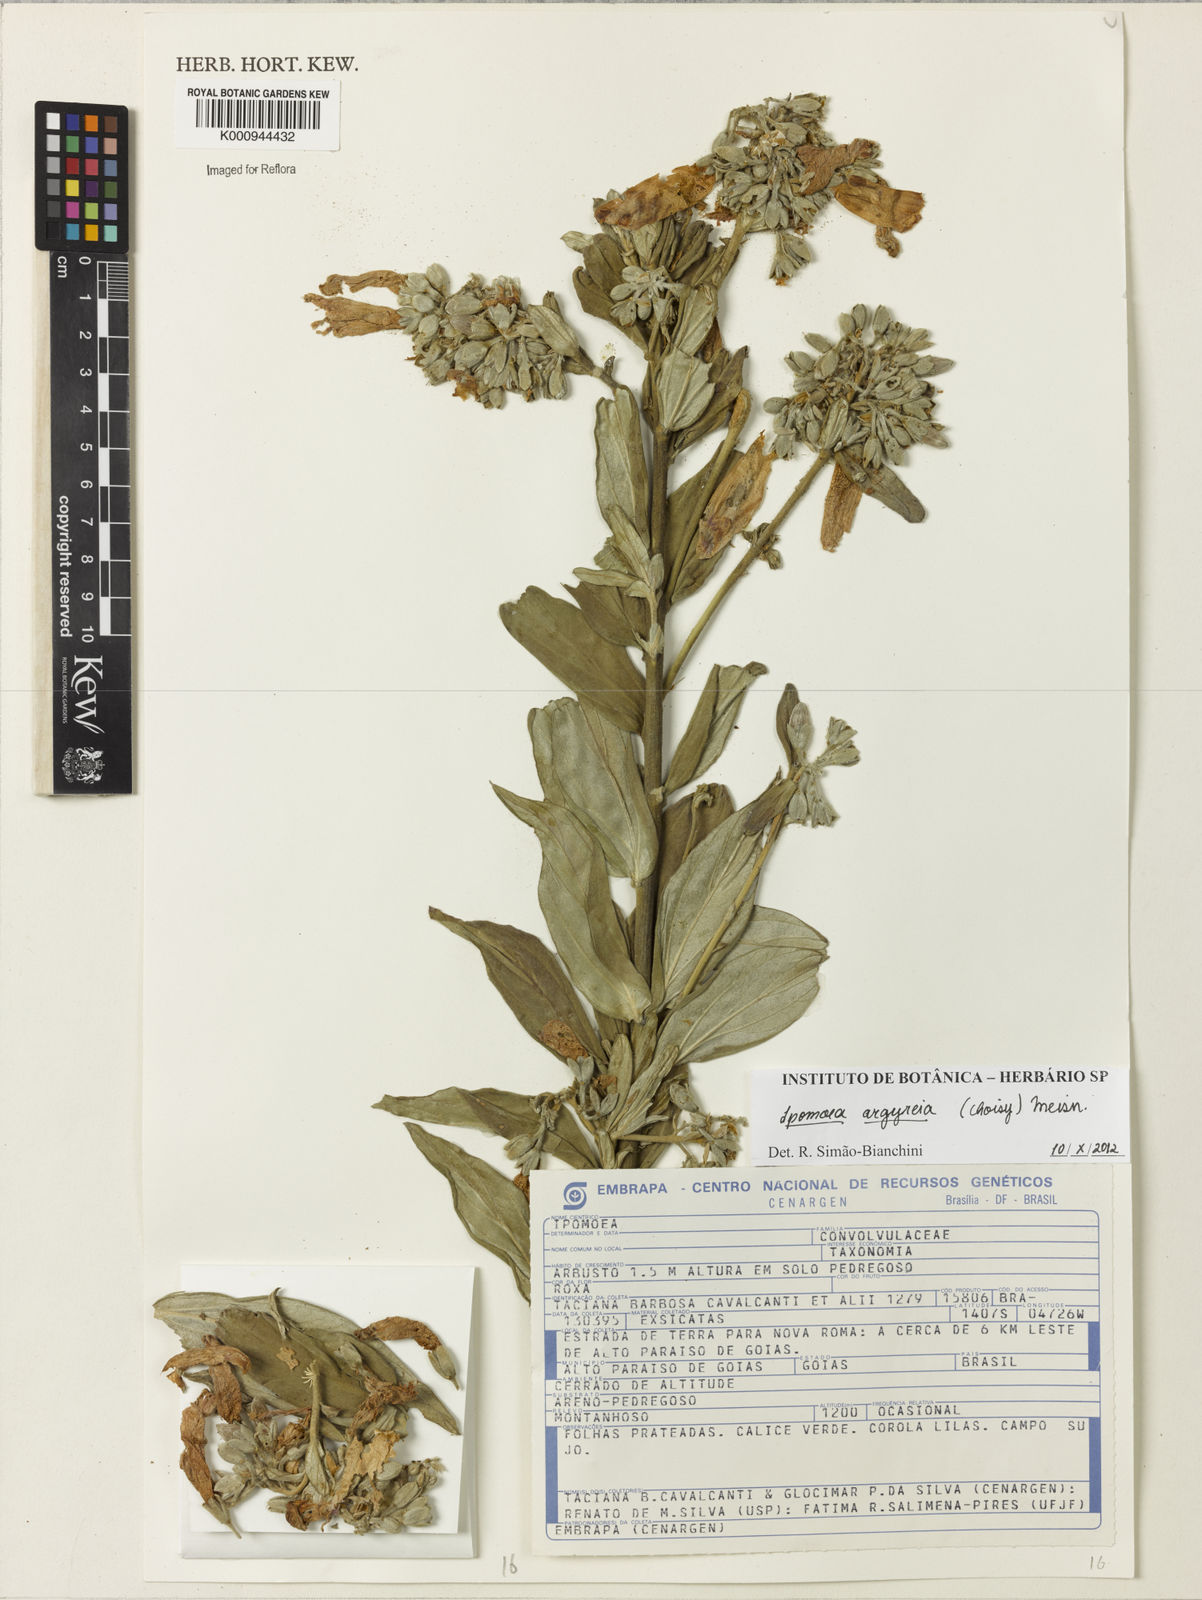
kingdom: Plantae
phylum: Tracheophyta
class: Magnoliopsida
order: Solanales
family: Convolvulaceae
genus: Ipomoea
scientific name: Ipomoea argyreia
